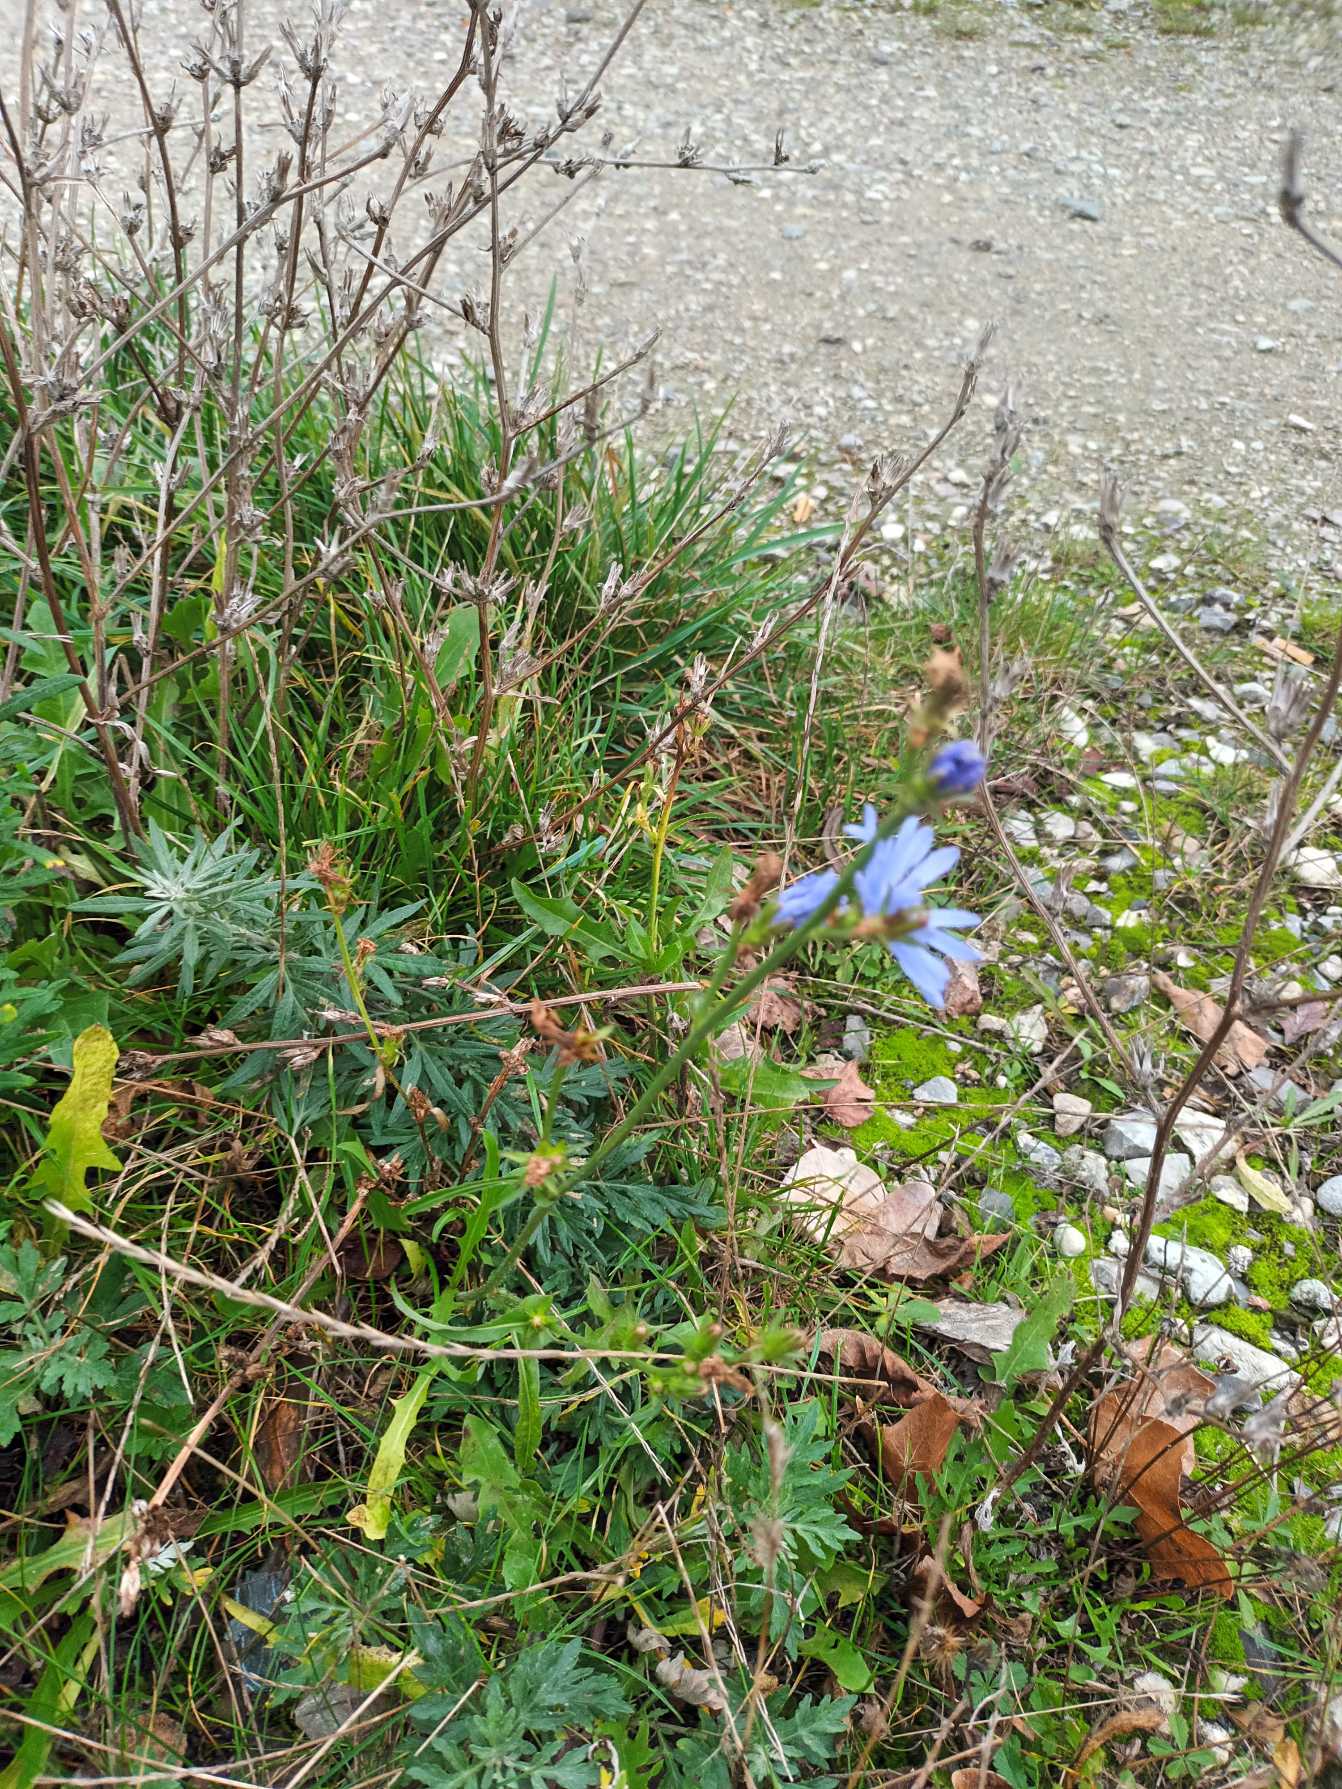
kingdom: Plantae
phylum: Tracheophyta
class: Magnoliopsida
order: Asterales
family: Asteraceae
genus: Cichorium
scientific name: Cichorium intybus
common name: Cikorie
